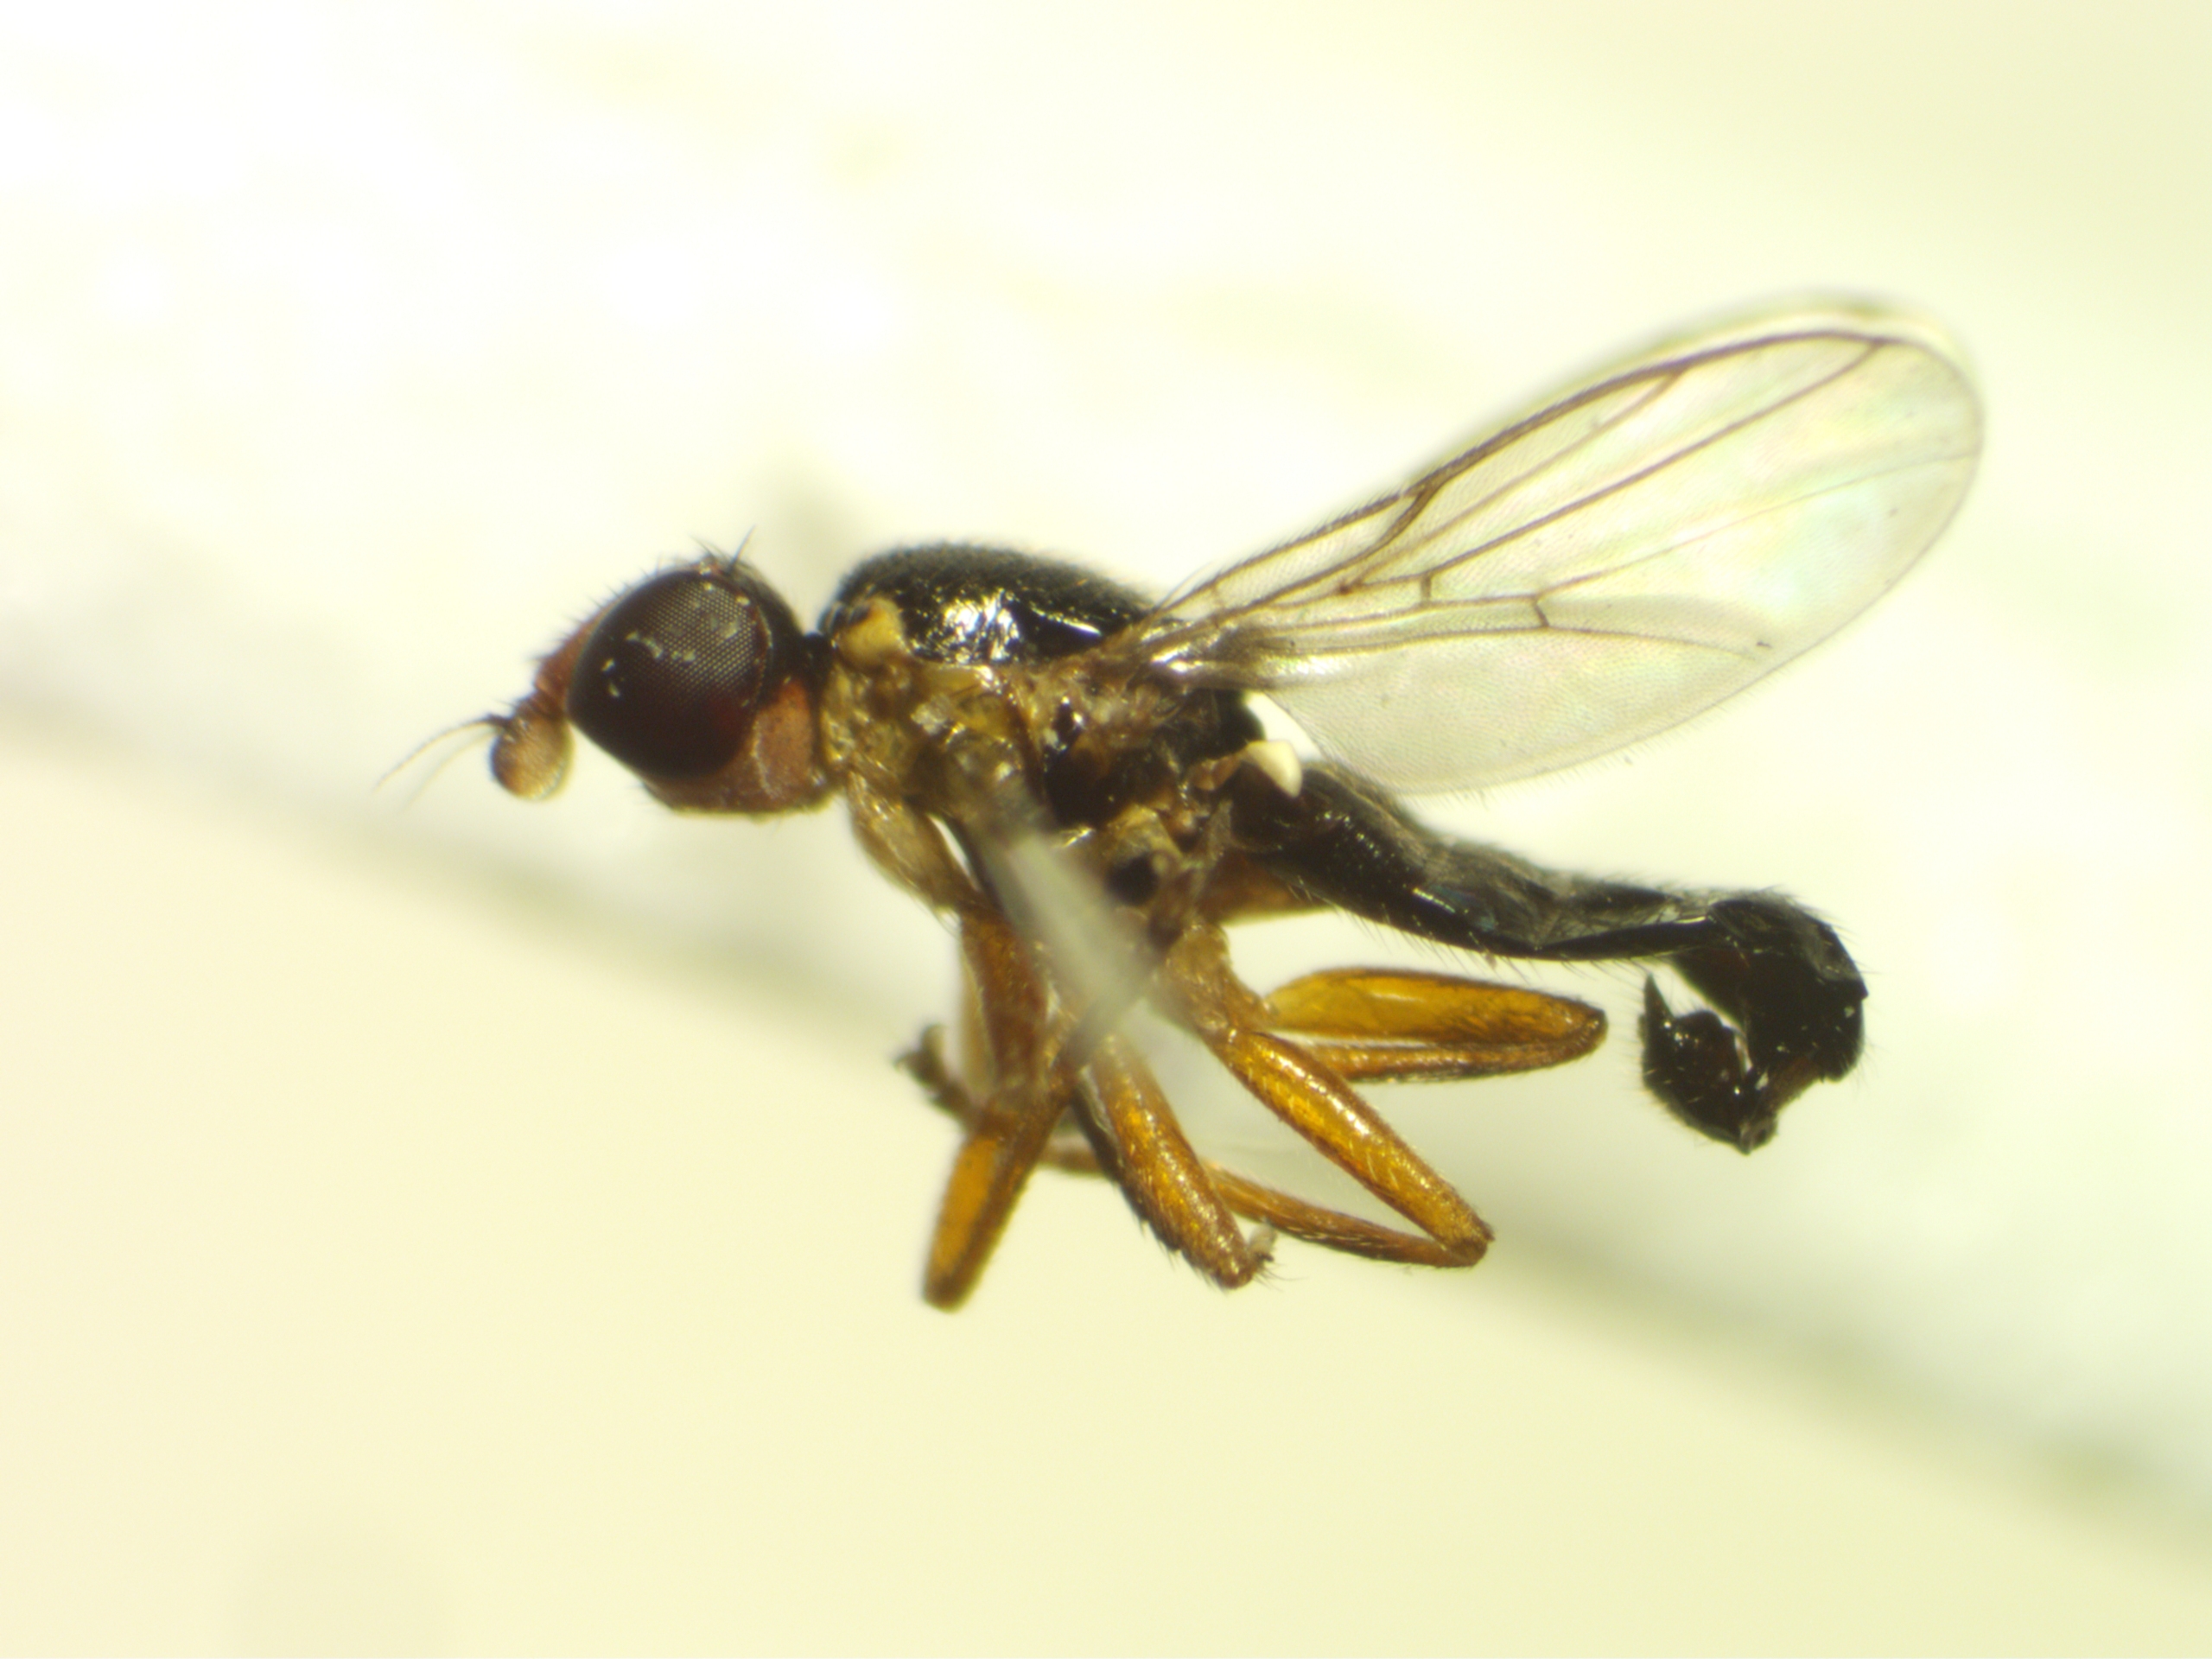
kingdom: Animalia
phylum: Arthropoda
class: Insecta
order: Diptera
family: Chloropidae
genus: Cetema
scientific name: Cetema elongatum
